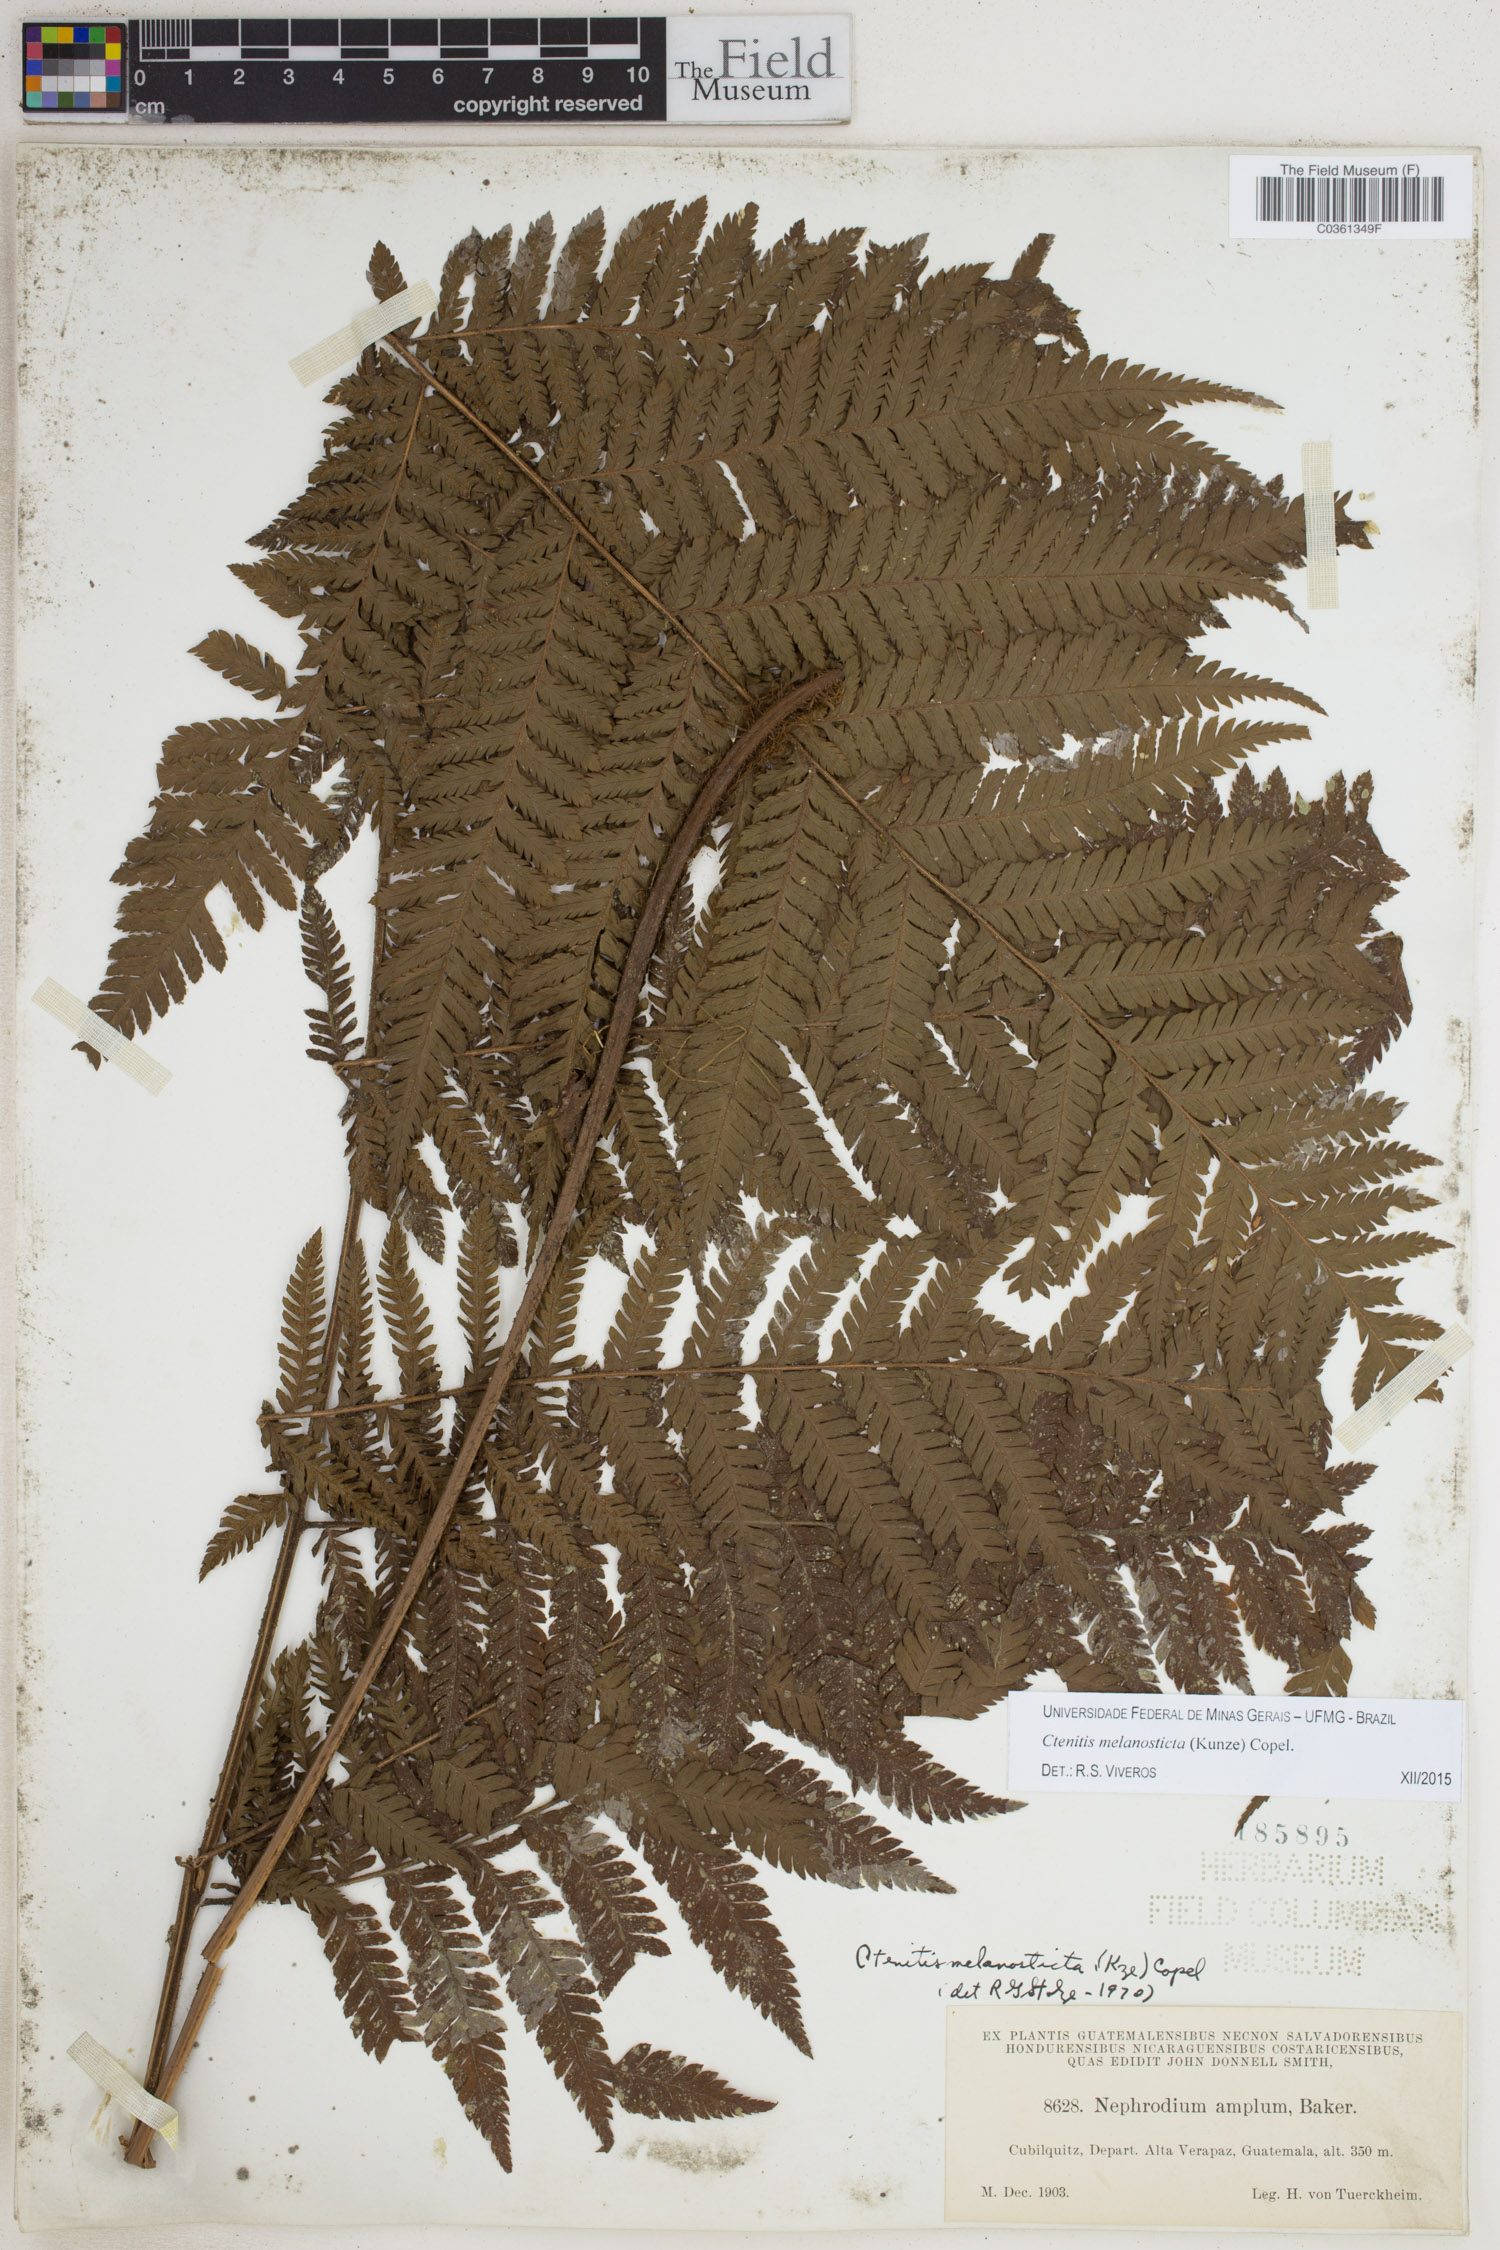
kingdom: Plantae
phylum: Tracheophyta
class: Polypodiopsida
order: Polypodiales
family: Dryopteridaceae
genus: Ctenitis
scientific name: Ctenitis melanosticta
